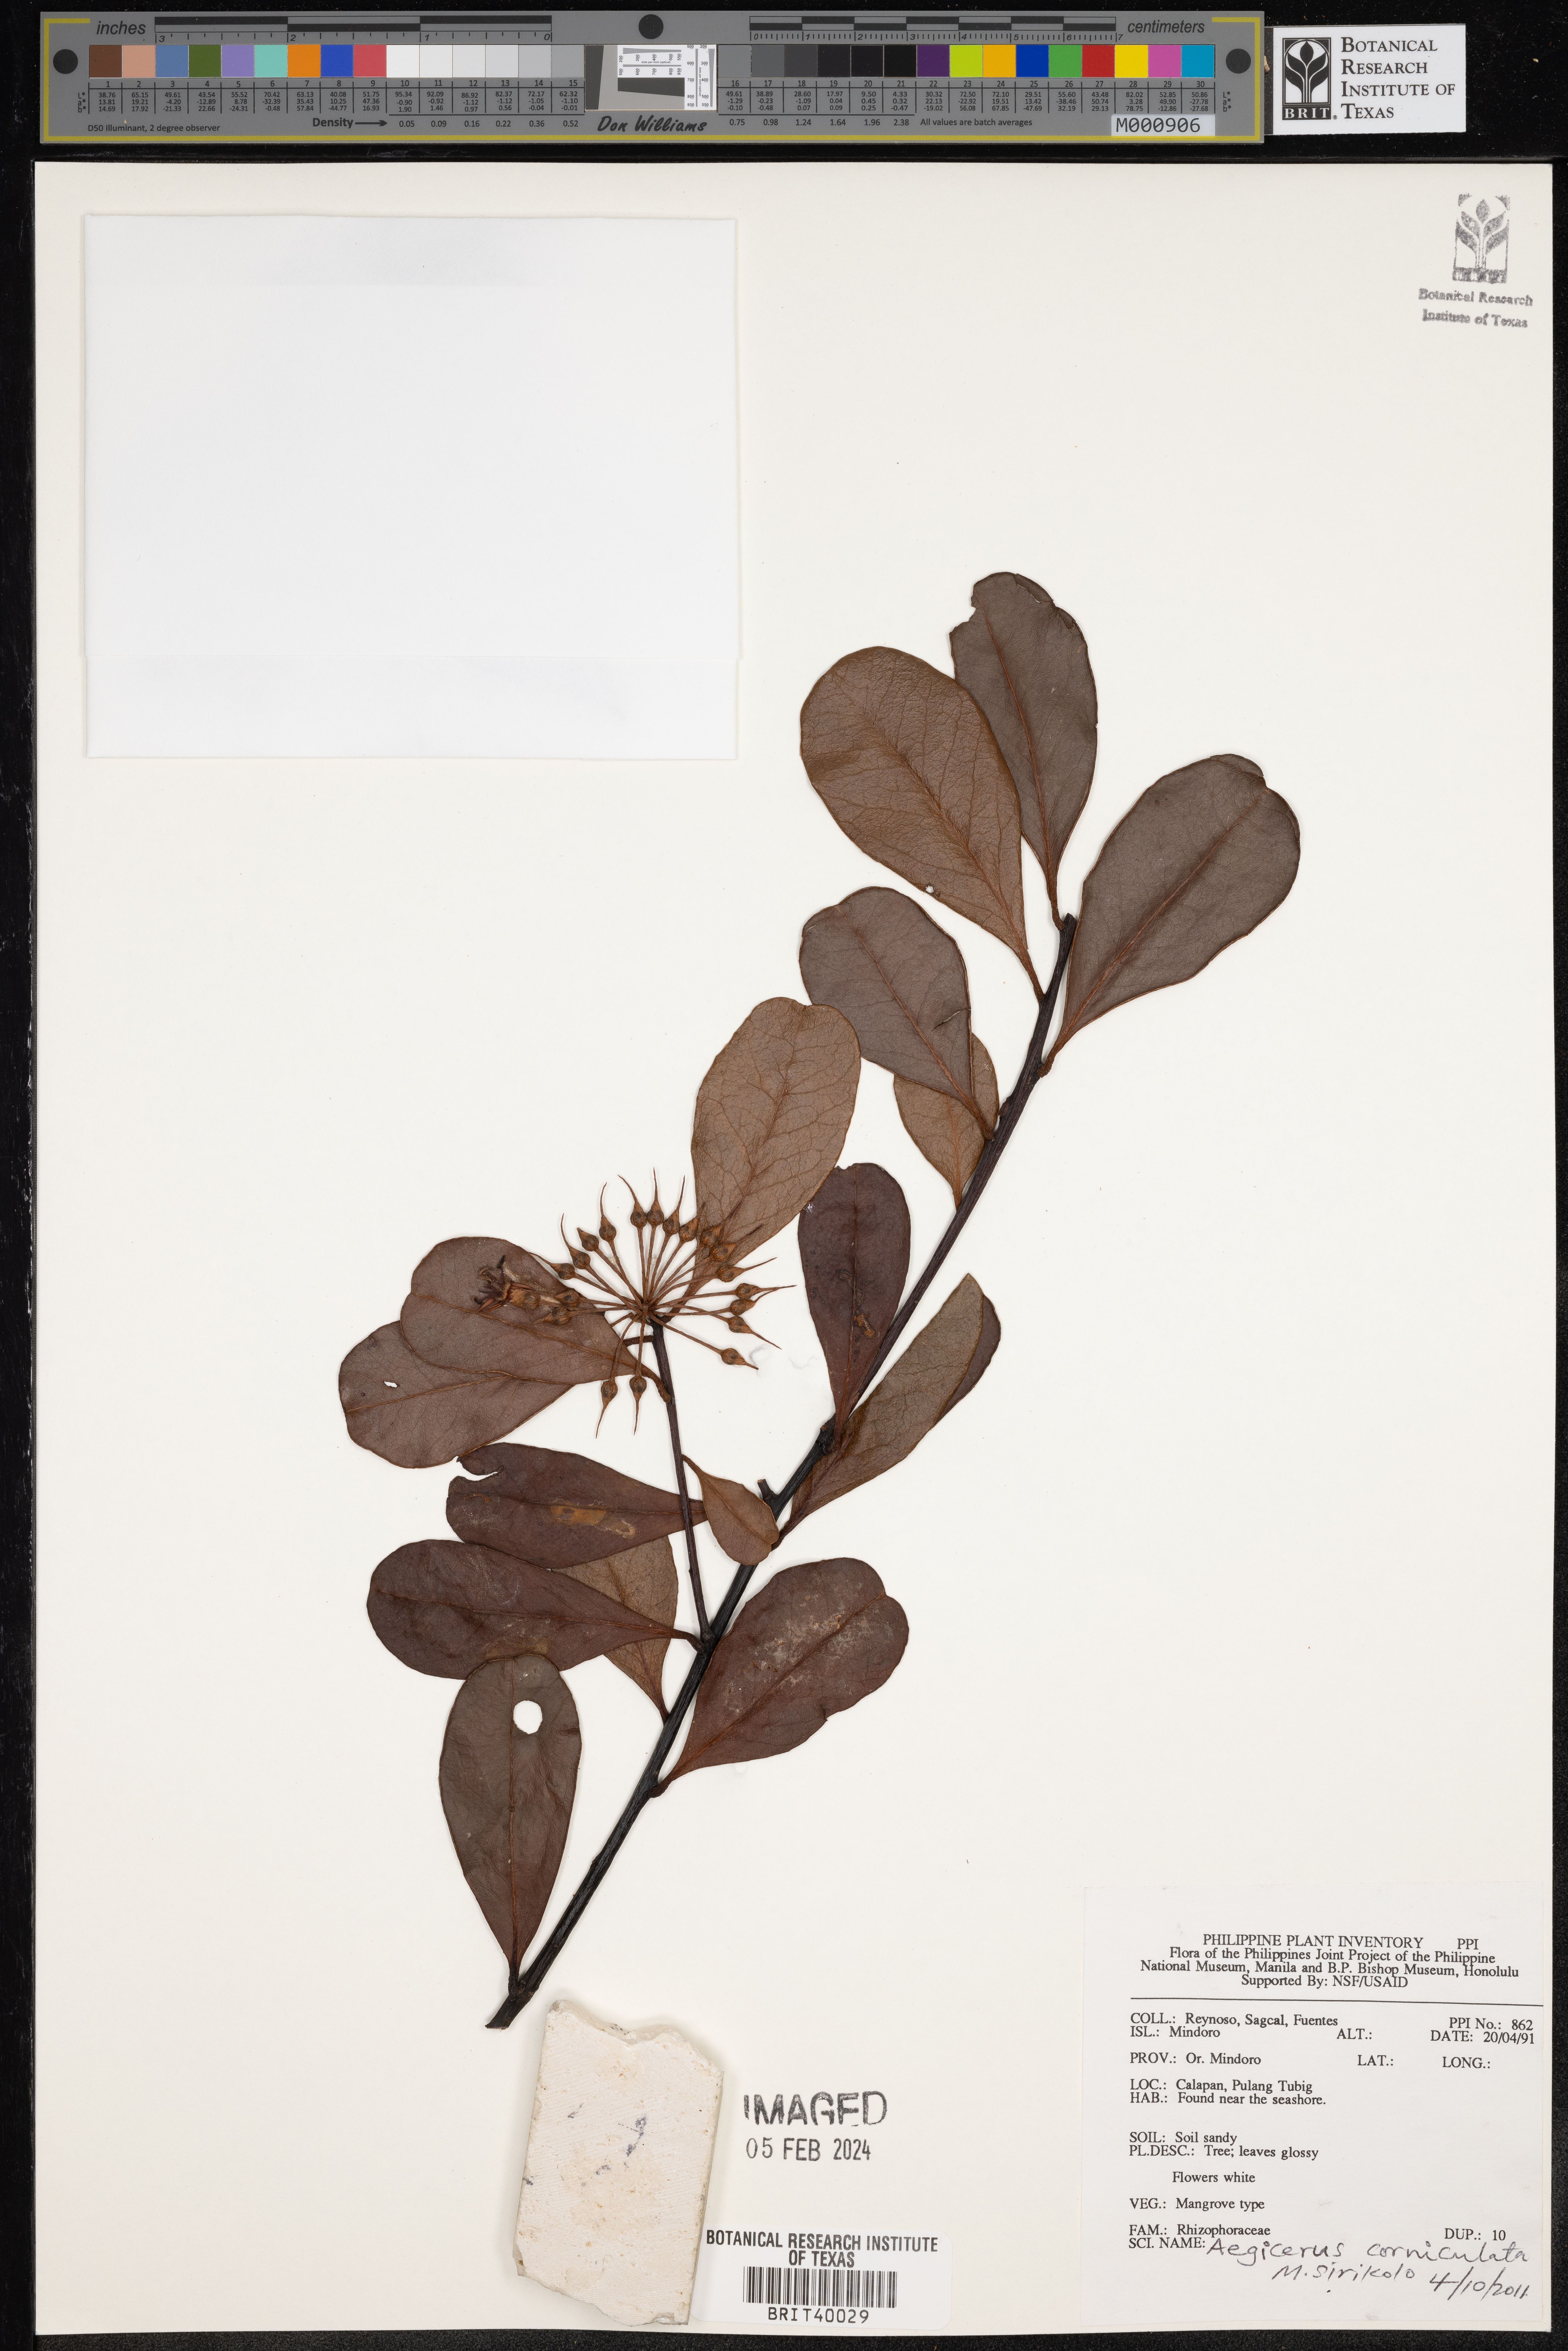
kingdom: Plantae
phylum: Tracheophyta
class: Magnoliopsida
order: Ericales
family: Primulaceae
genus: Aegiceras
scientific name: Aegiceras corniculatum
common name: River mangrove
